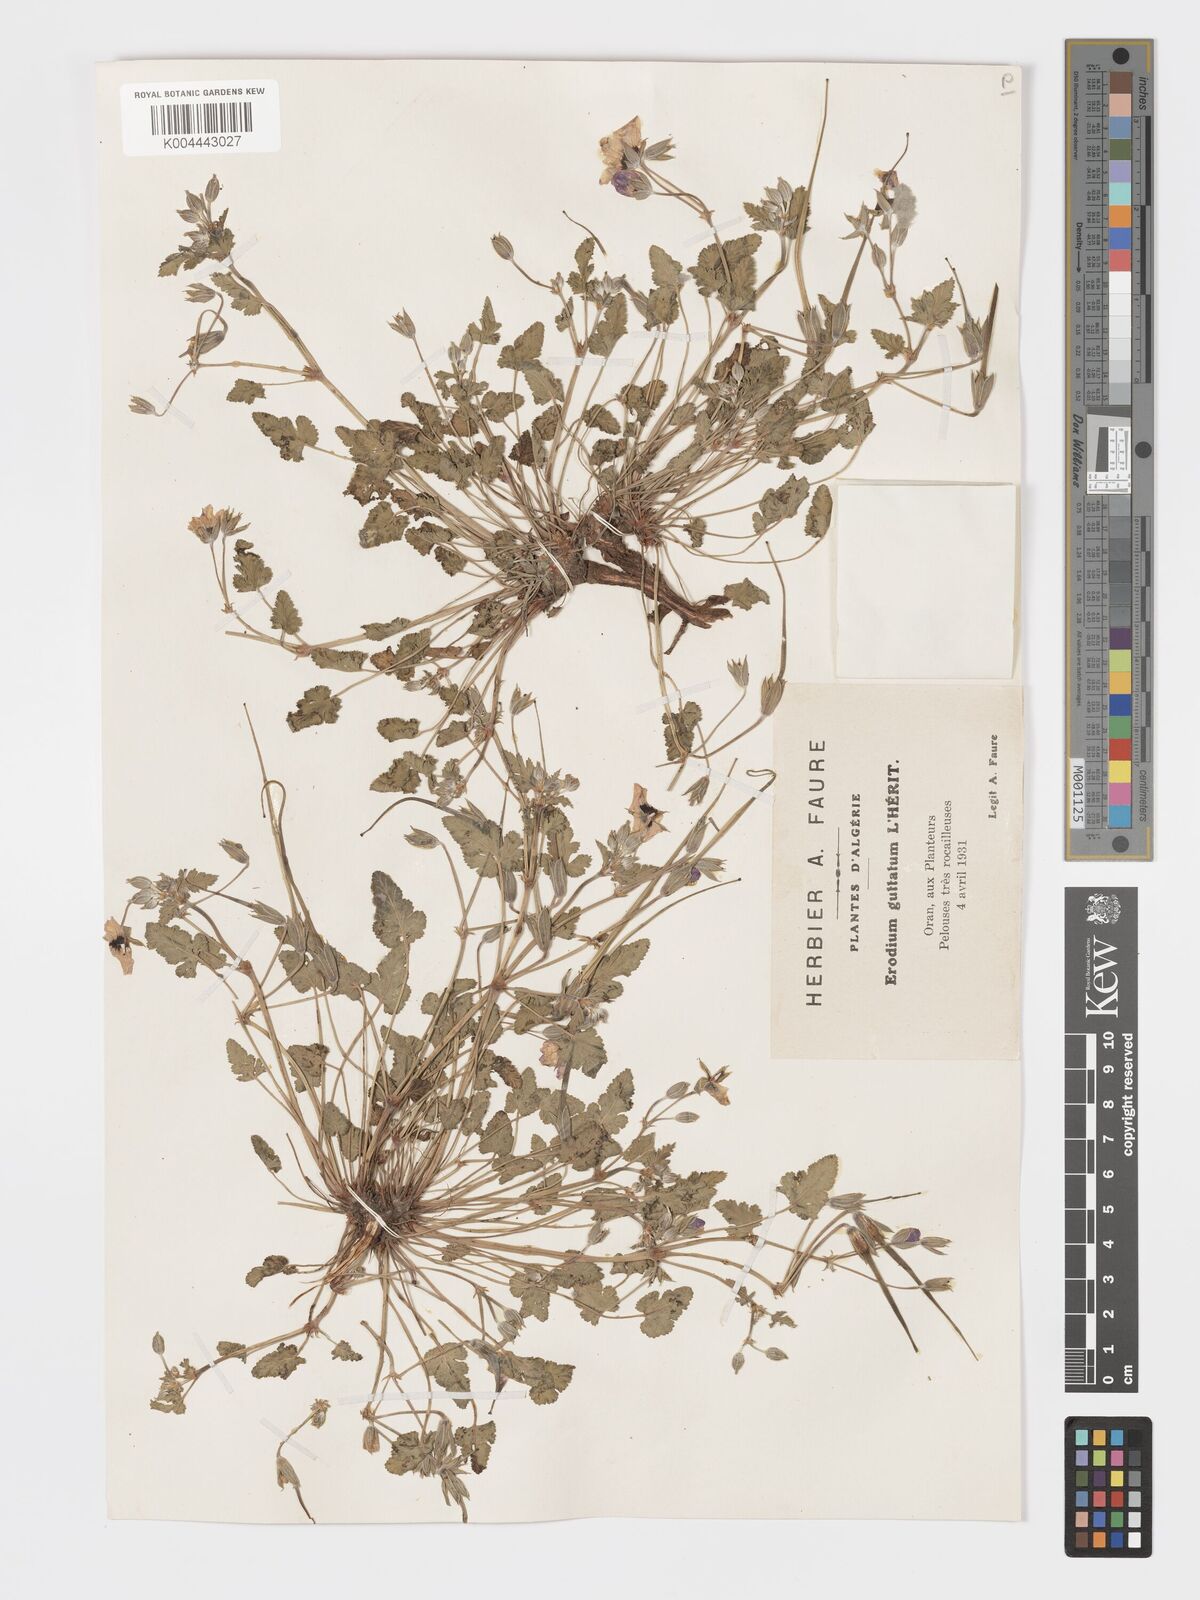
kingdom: Plantae
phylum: Tracheophyta
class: Magnoliopsida
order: Geraniales
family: Geraniaceae
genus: Erodium
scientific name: Erodium guttatum
